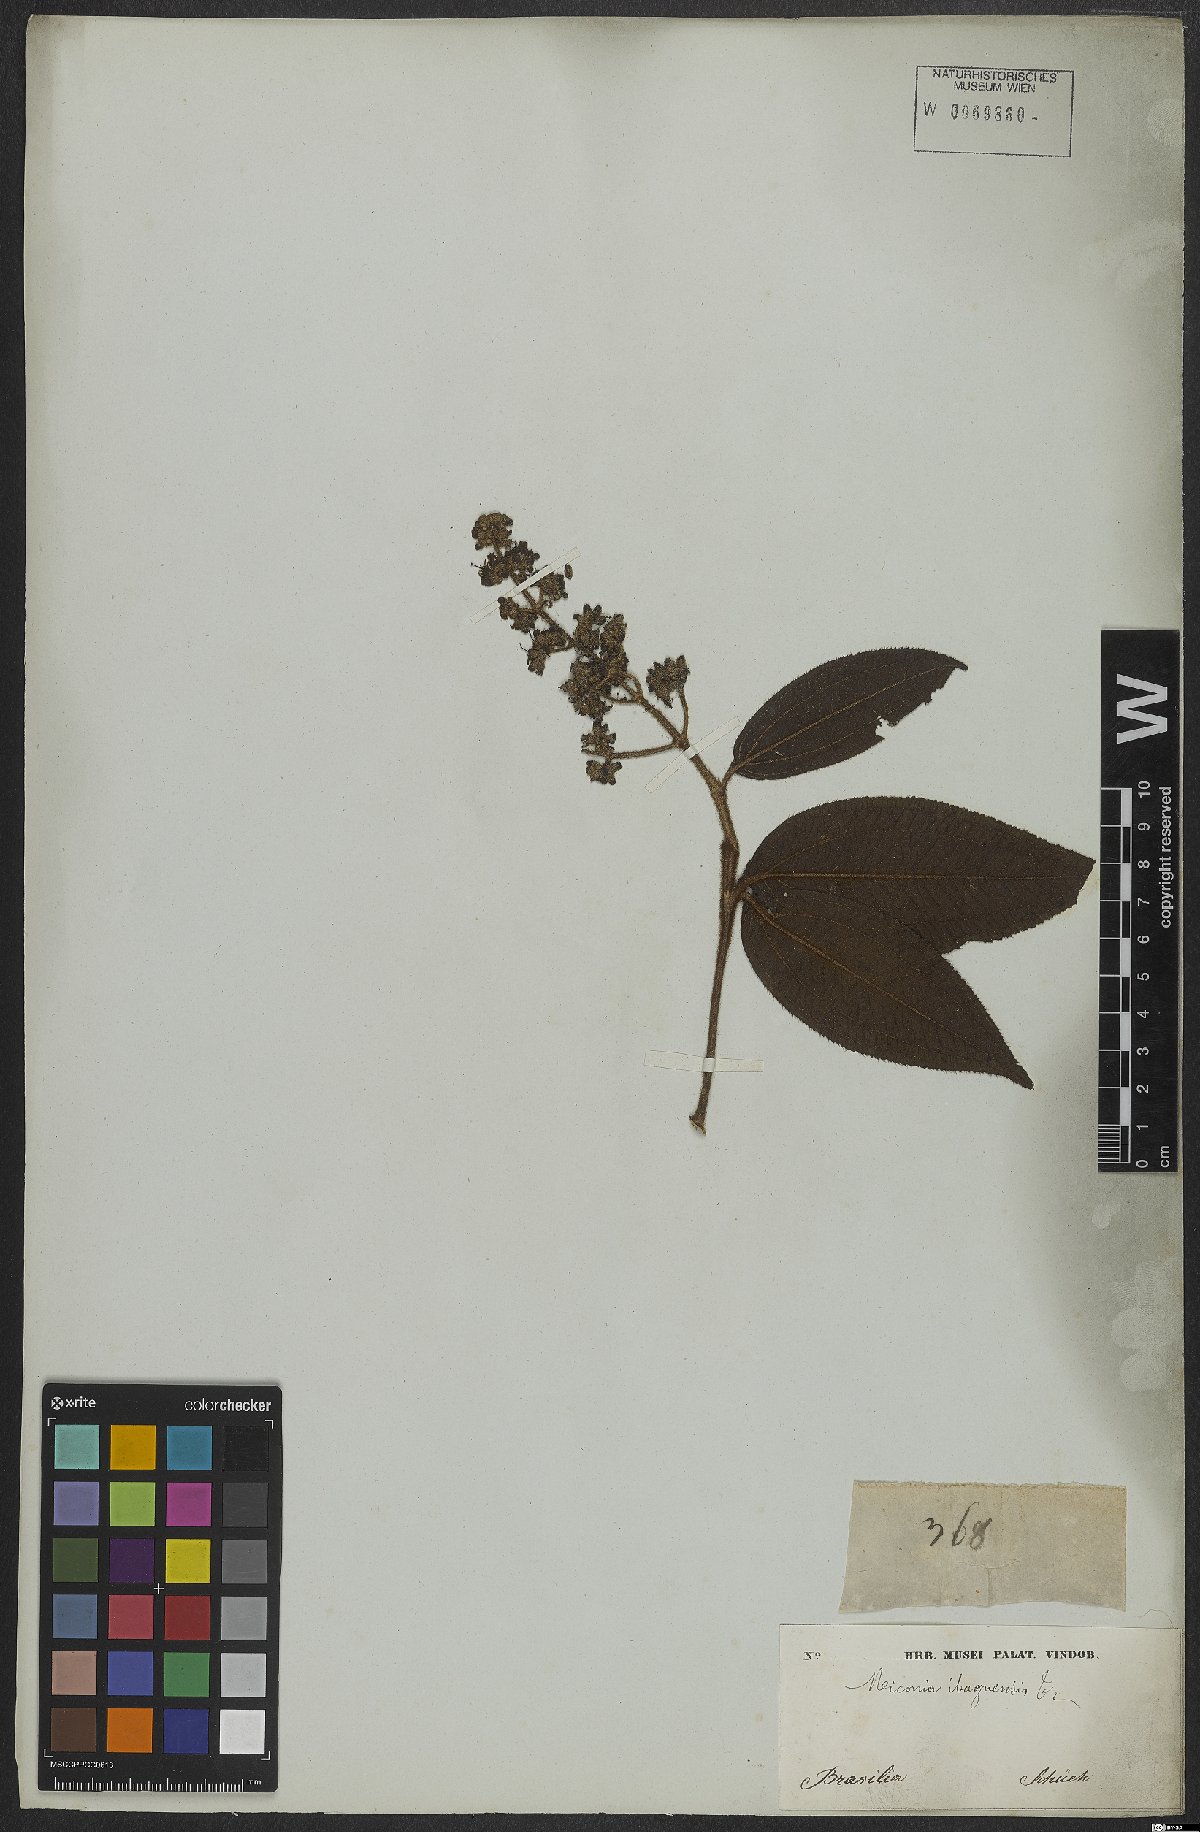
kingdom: Plantae
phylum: Tracheophyta
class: Magnoliopsida
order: Myrtales
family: Melastomataceae
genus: Miconia
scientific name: Miconia ibaguensis
